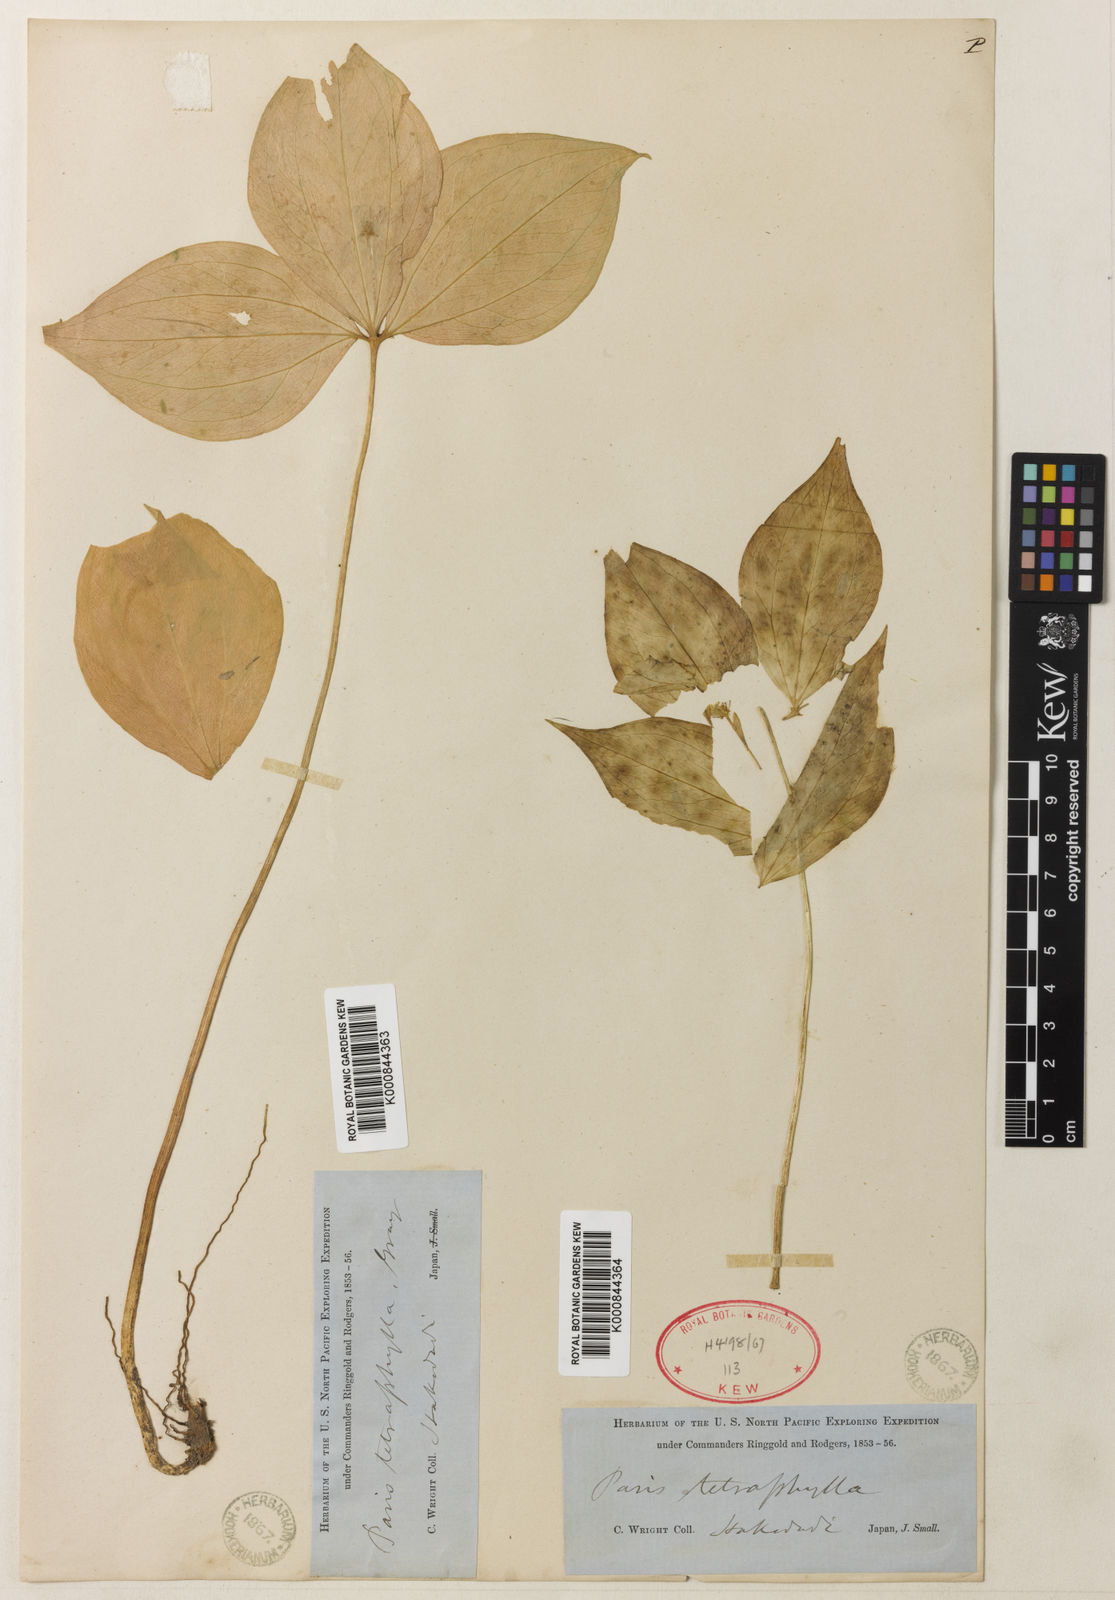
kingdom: Plantae
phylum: Tracheophyta
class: Liliopsida
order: Liliales
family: Melanthiaceae
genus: Paris
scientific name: Paris tetraphylla
